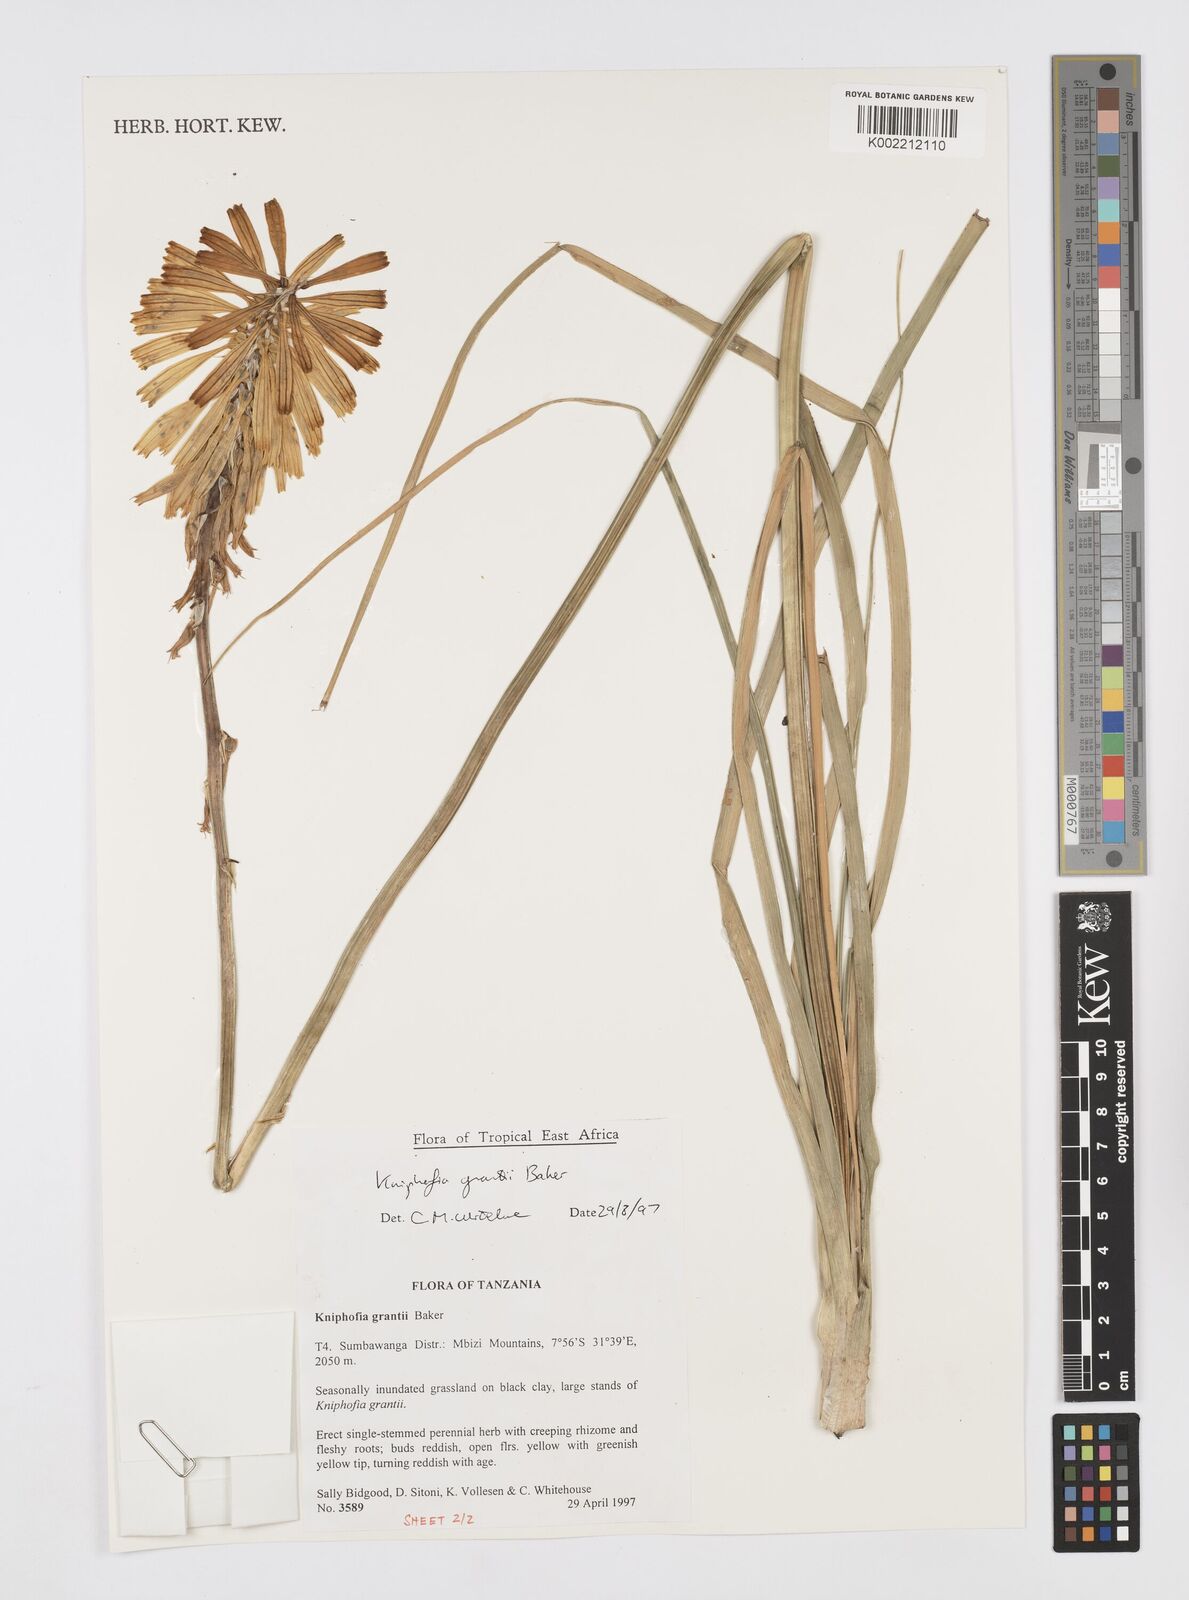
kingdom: Plantae
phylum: Tracheophyta
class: Liliopsida
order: Asparagales
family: Asphodelaceae
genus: Kniphofia
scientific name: Kniphofia grantii
